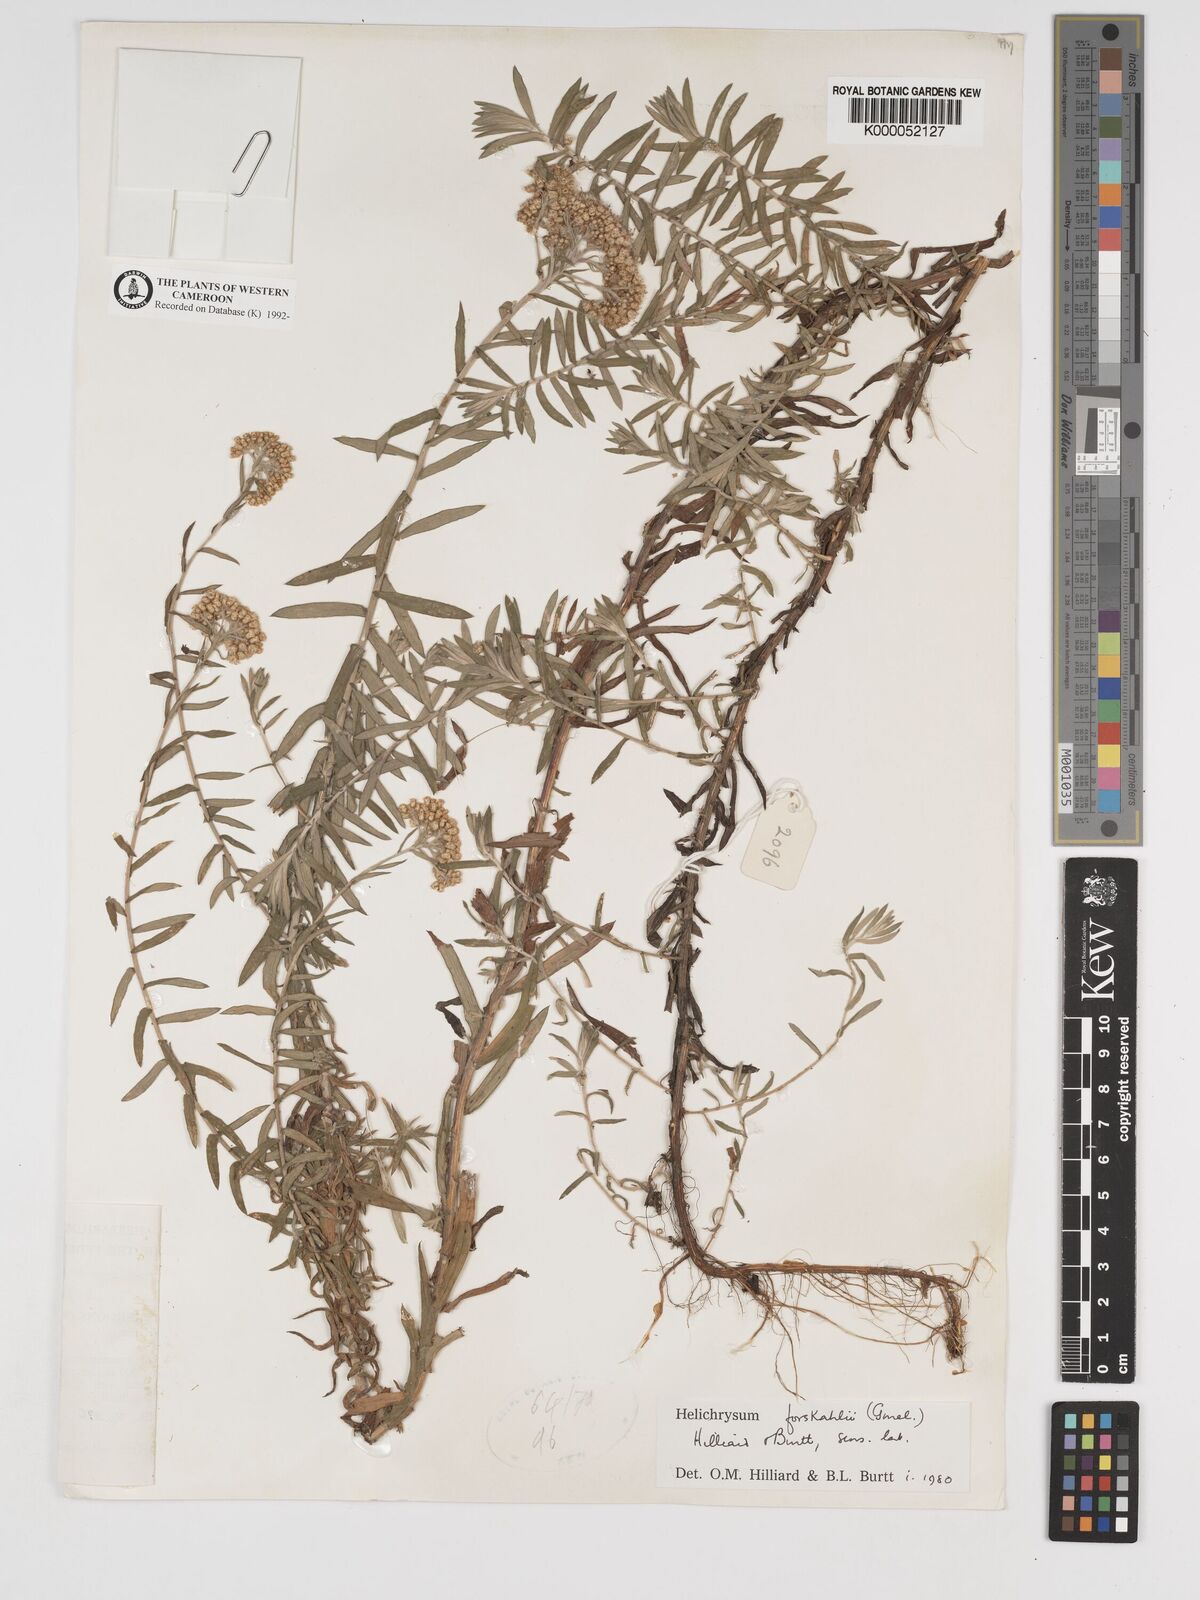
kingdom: Plantae
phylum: Tracheophyta
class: Magnoliopsida
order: Asterales
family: Asteraceae
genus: Helichrysum
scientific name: Helichrysum forskahlii
